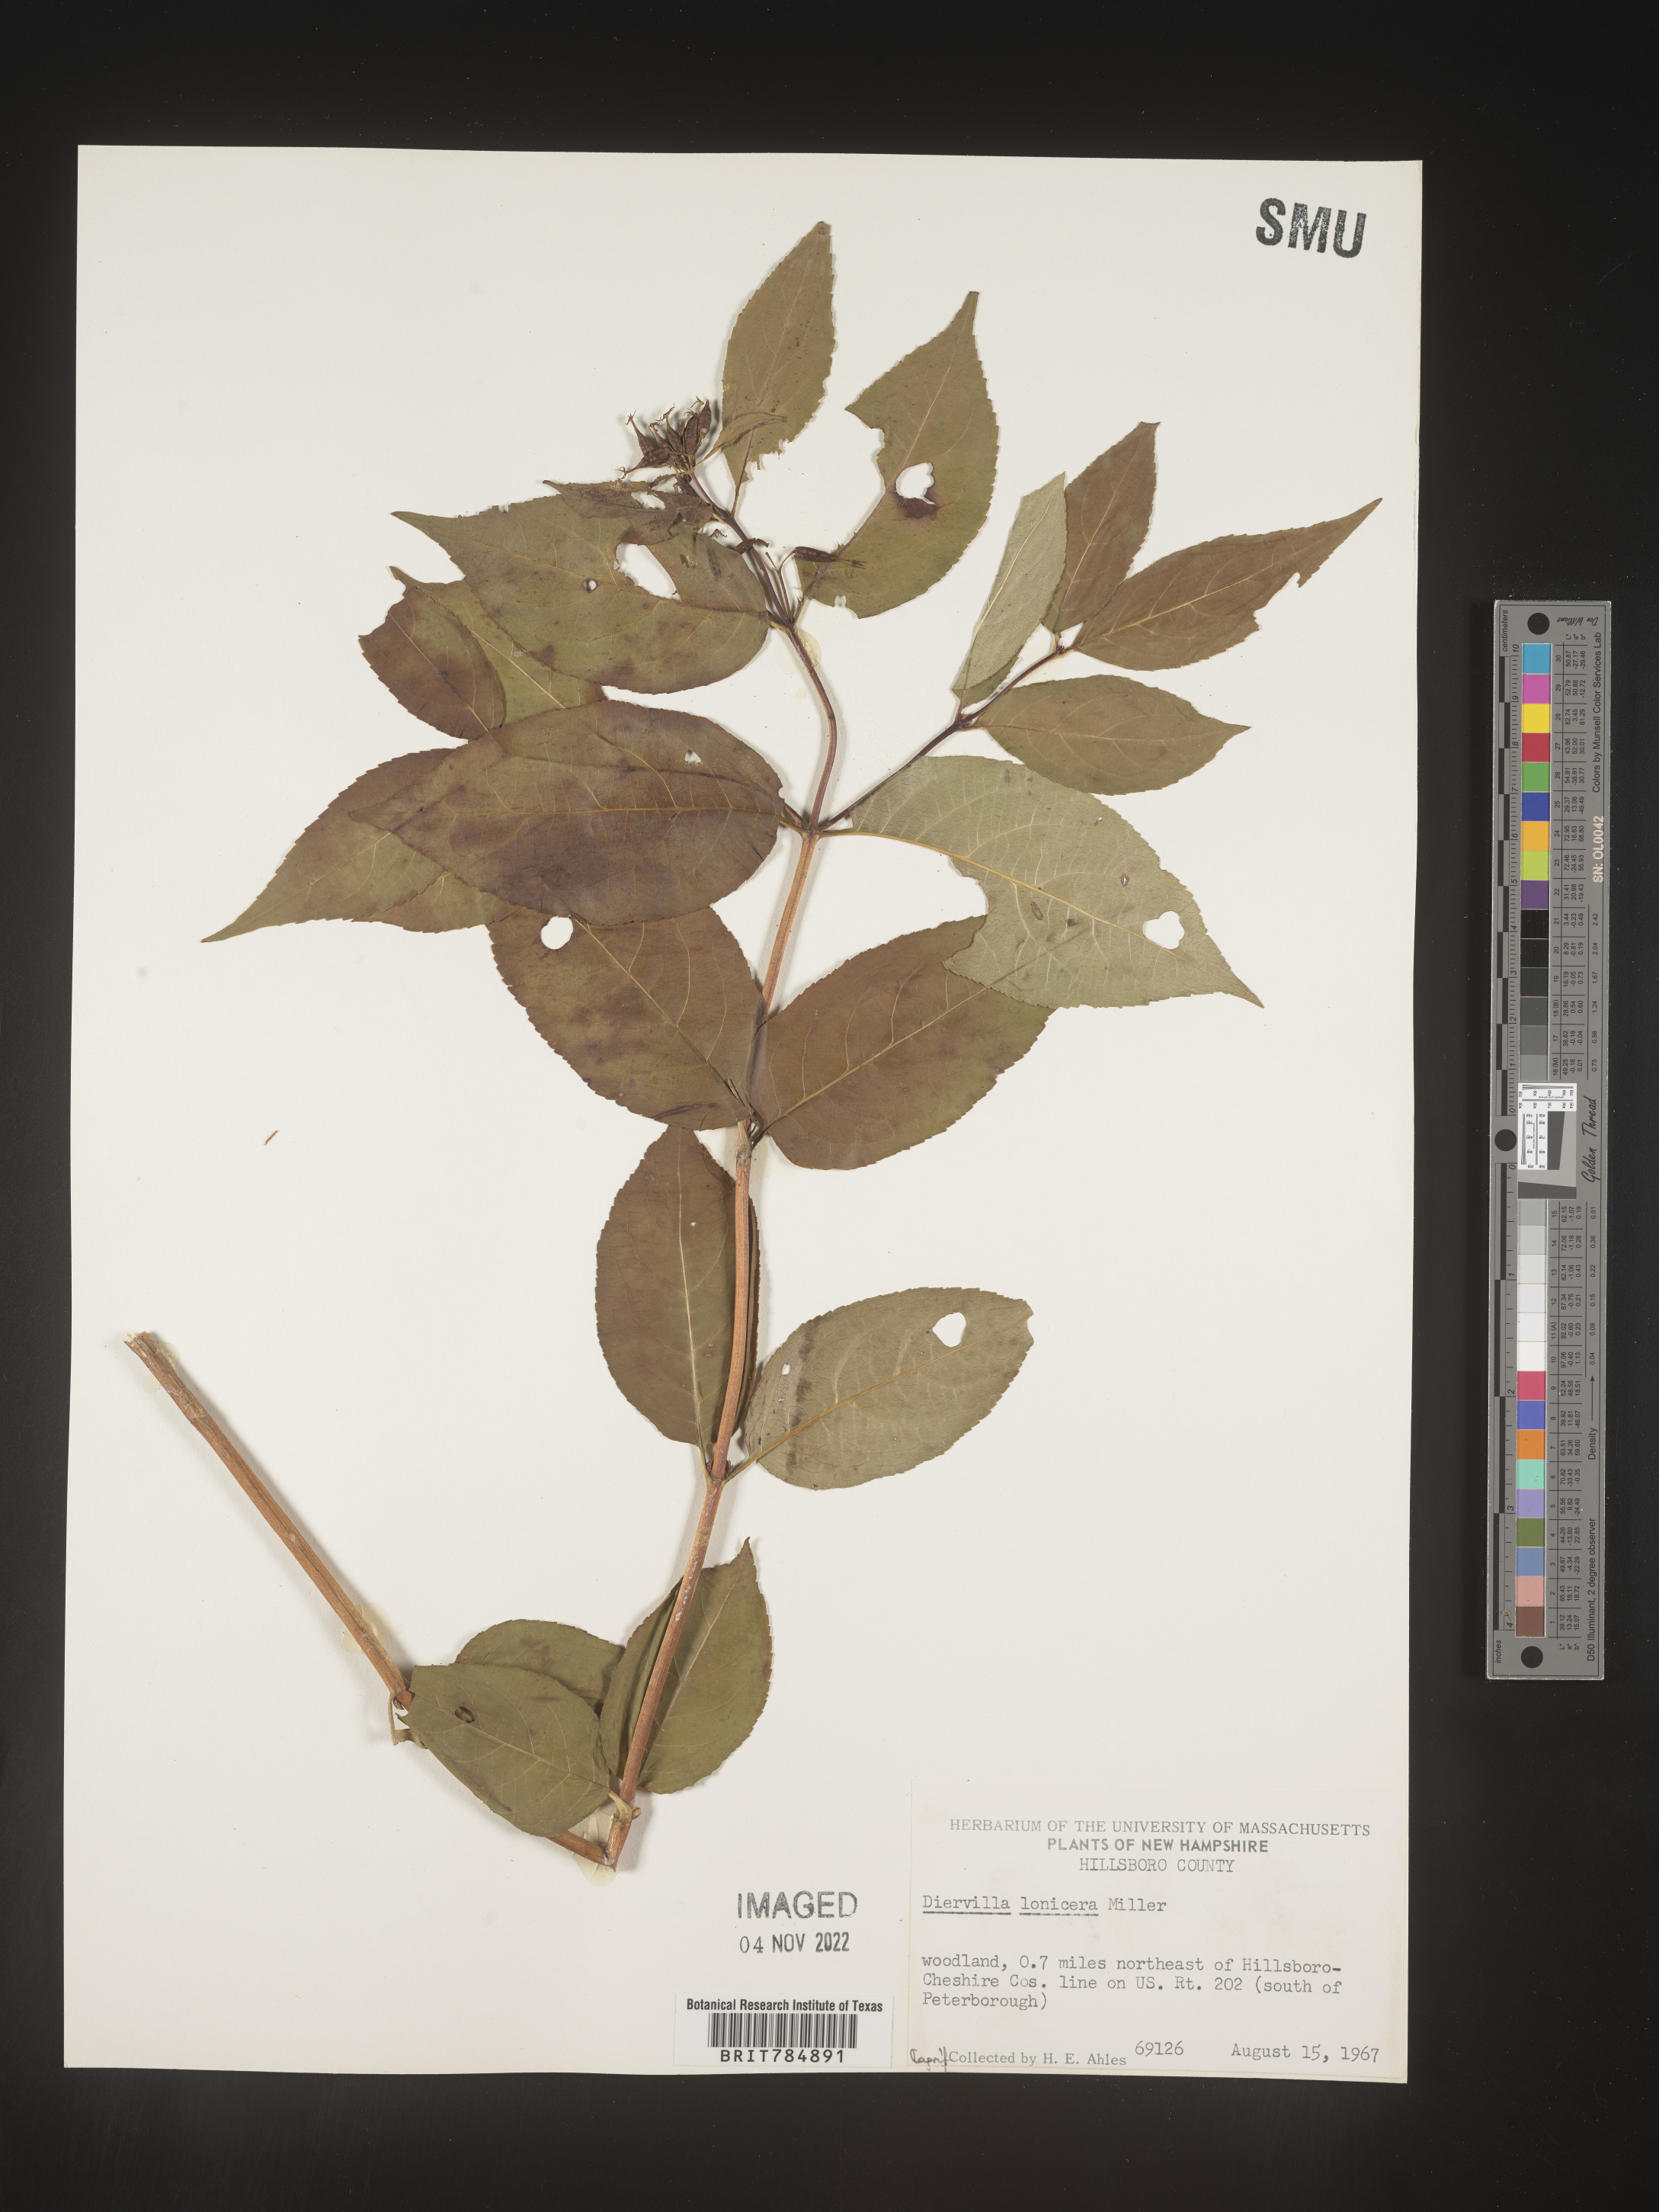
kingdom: Plantae
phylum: Tracheophyta
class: Magnoliopsida
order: Dipsacales
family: Caprifoliaceae
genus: Diervilla
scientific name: Diervilla lonicera
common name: Bush-honeysuckle
